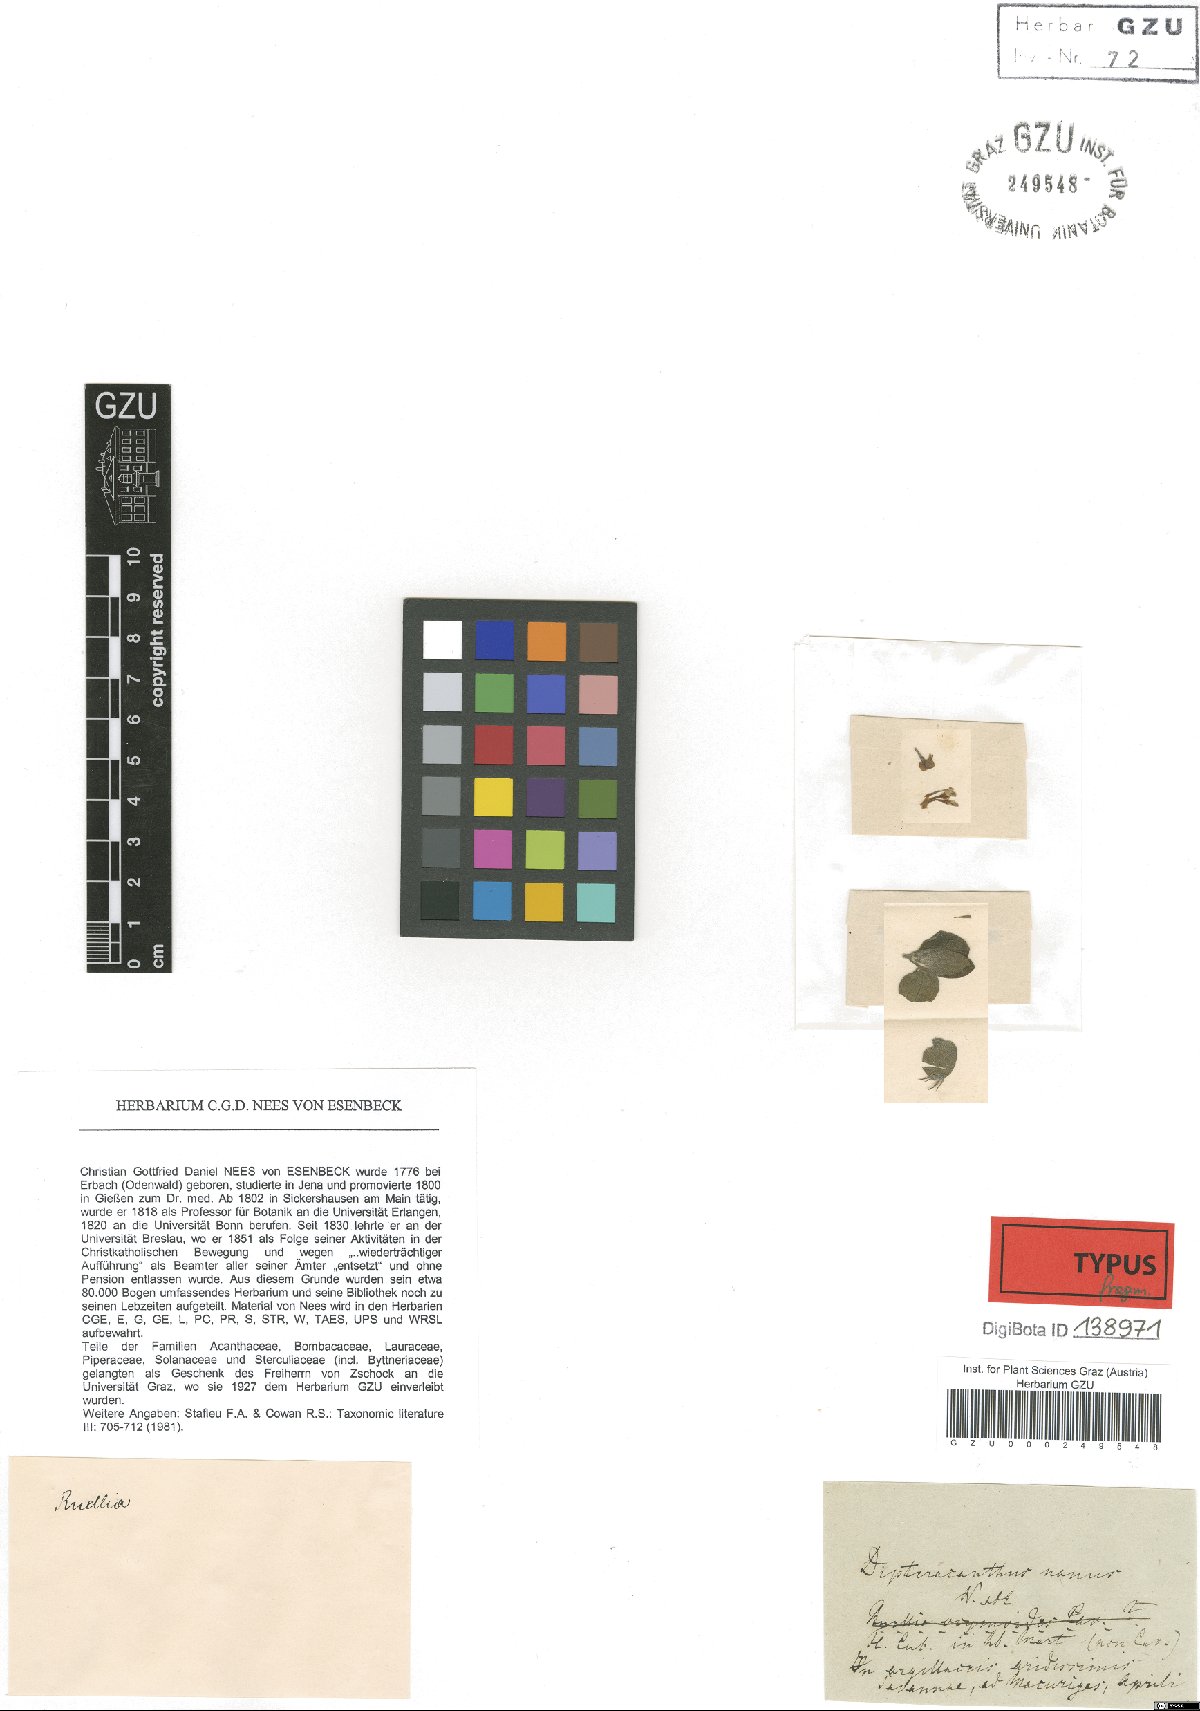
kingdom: Plantae
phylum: Tracheophyta
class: Magnoliopsida
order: Lamiales
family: Acanthaceae
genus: Ruellia
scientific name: Ruellia geminiflora
